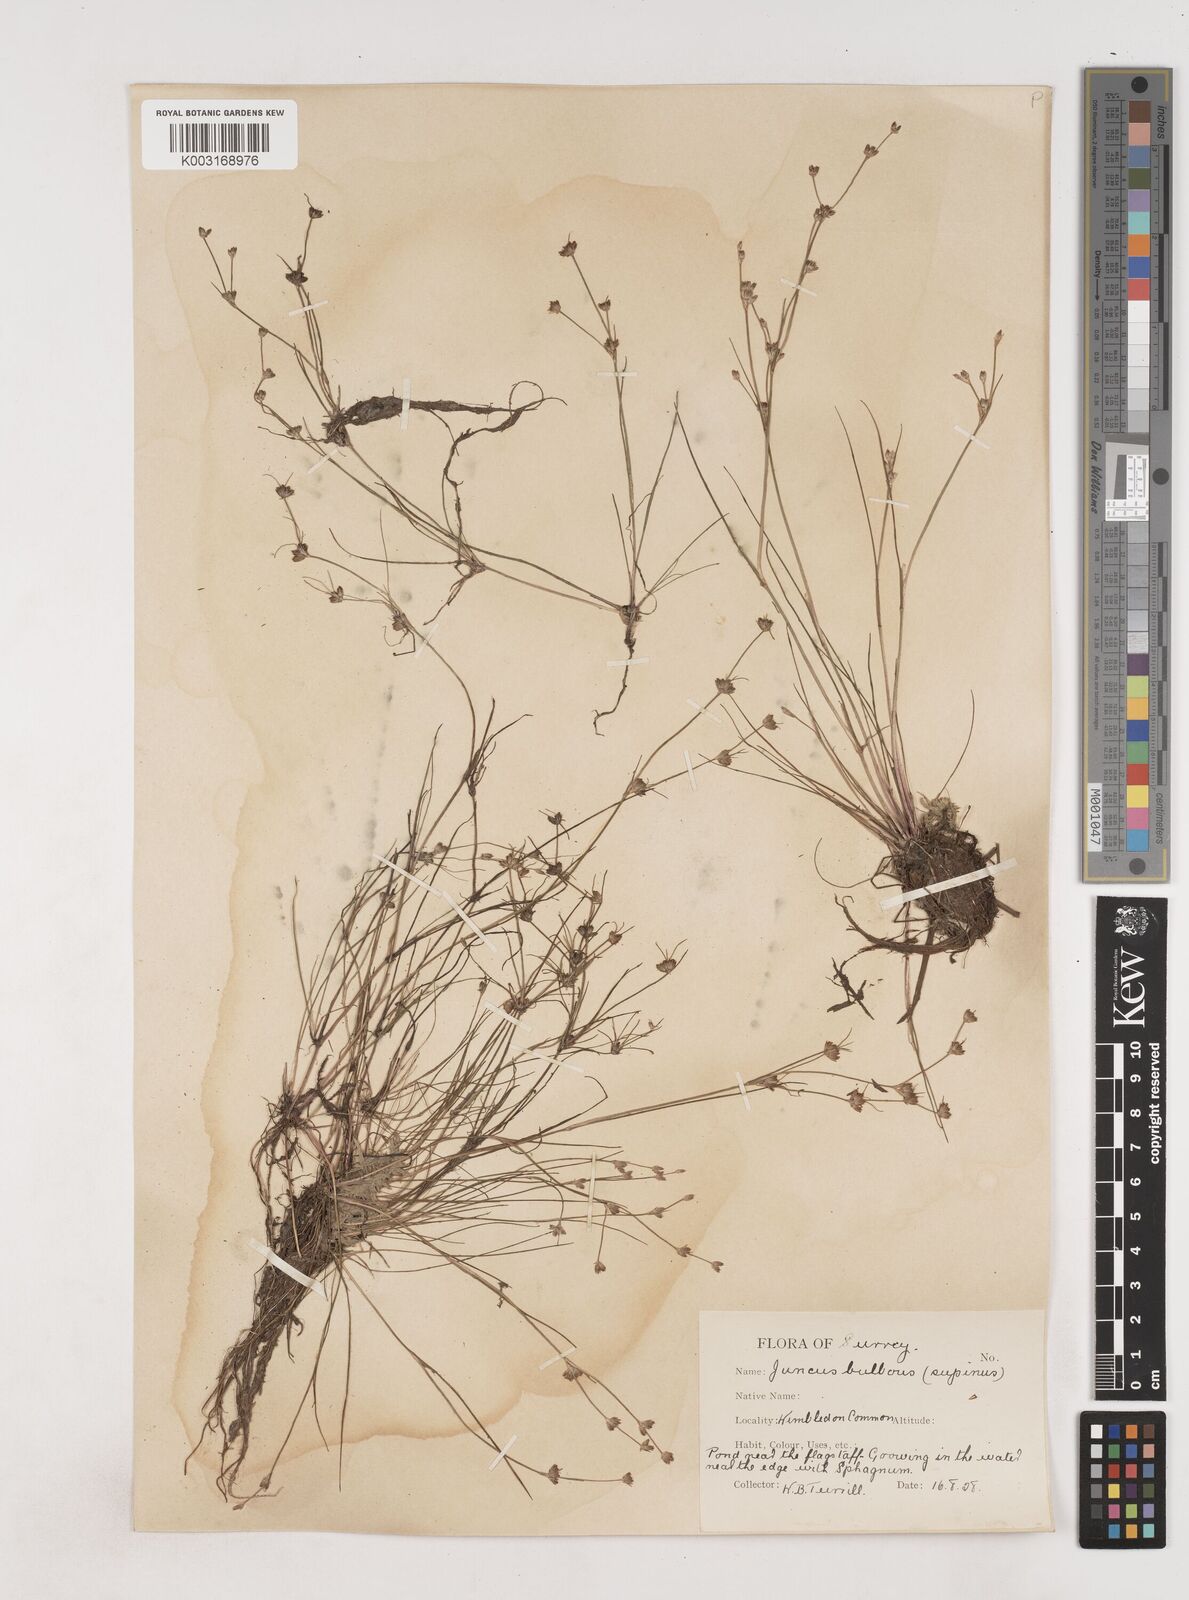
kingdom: Plantae
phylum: Tracheophyta
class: Liliopsida
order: Poales
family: Juncaceae
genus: Juncus
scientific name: Juncus bulbosus
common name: Bulbous rush
